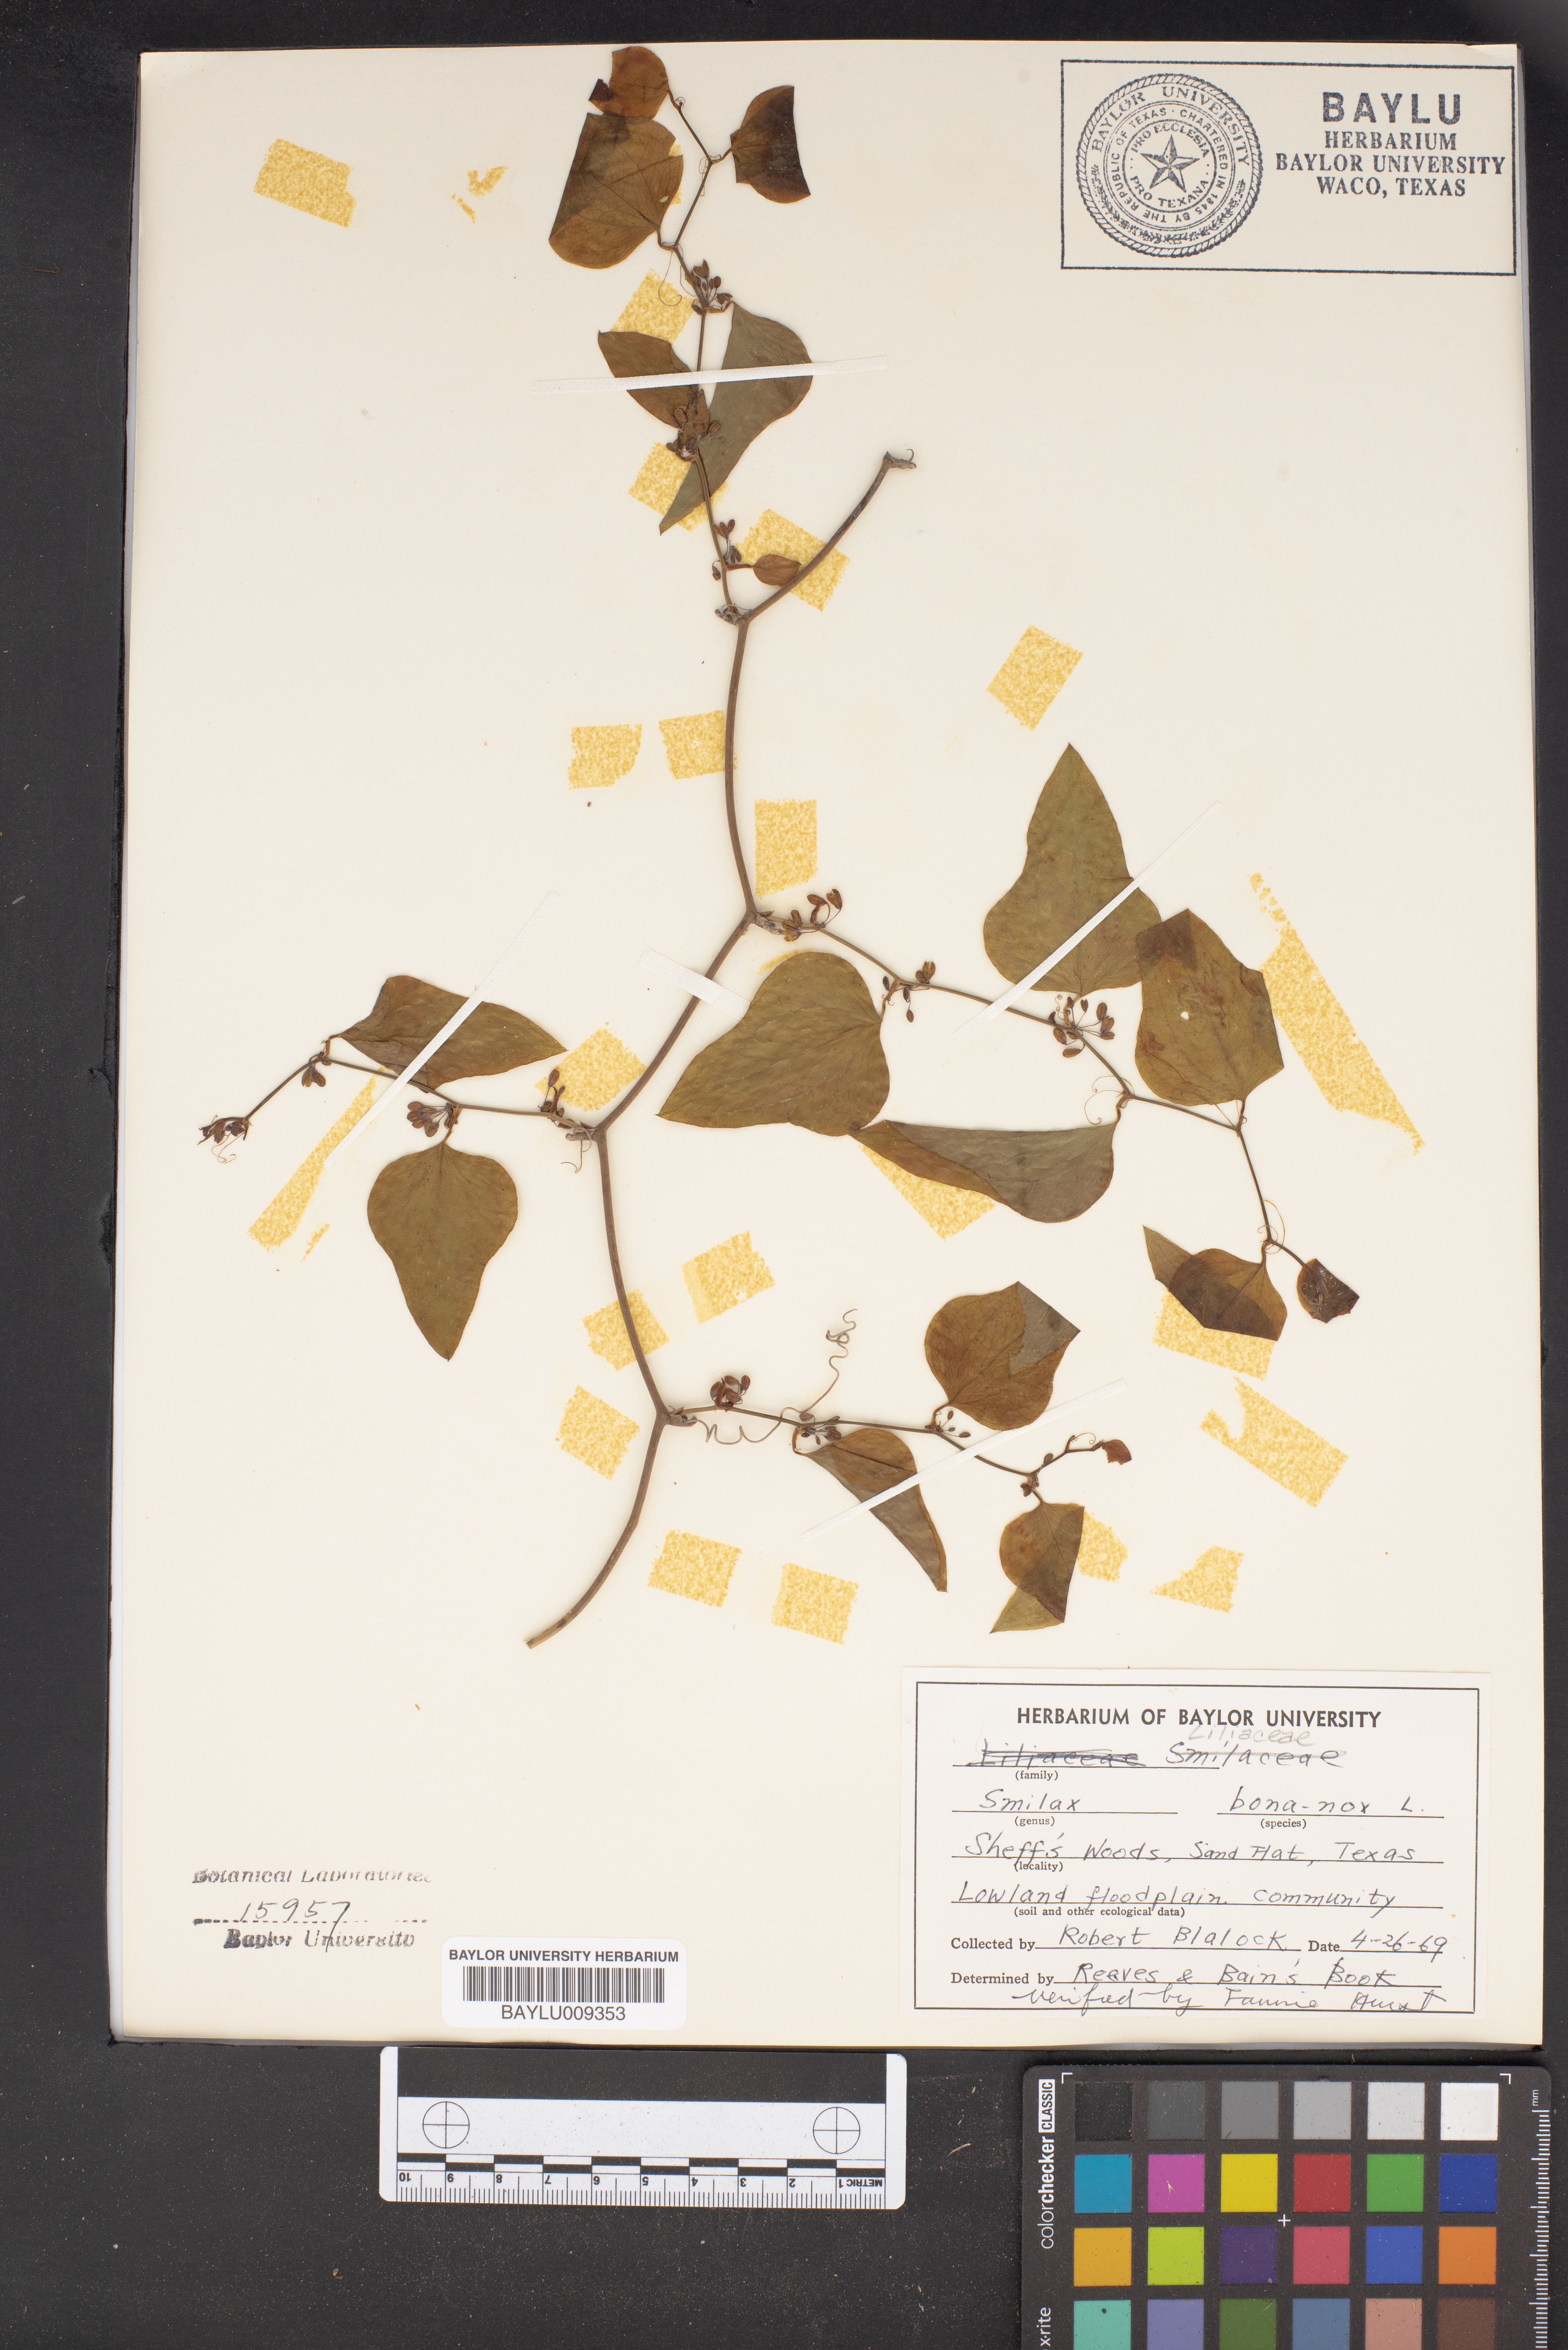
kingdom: Plantae
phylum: Tracheophyta
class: Liliopsida
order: Liliales
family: Smilacaceae
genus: Smilax
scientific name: Smilax bona-nox
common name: Catbrier
